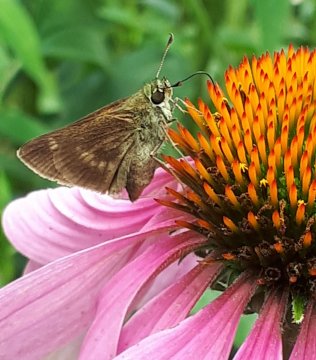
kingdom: Animalia
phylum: Arthropoda
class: Insecta
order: Lepidoptera
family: Hesperiidae
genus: Polites
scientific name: Polites egeremet
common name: Northern Broken-Dash
